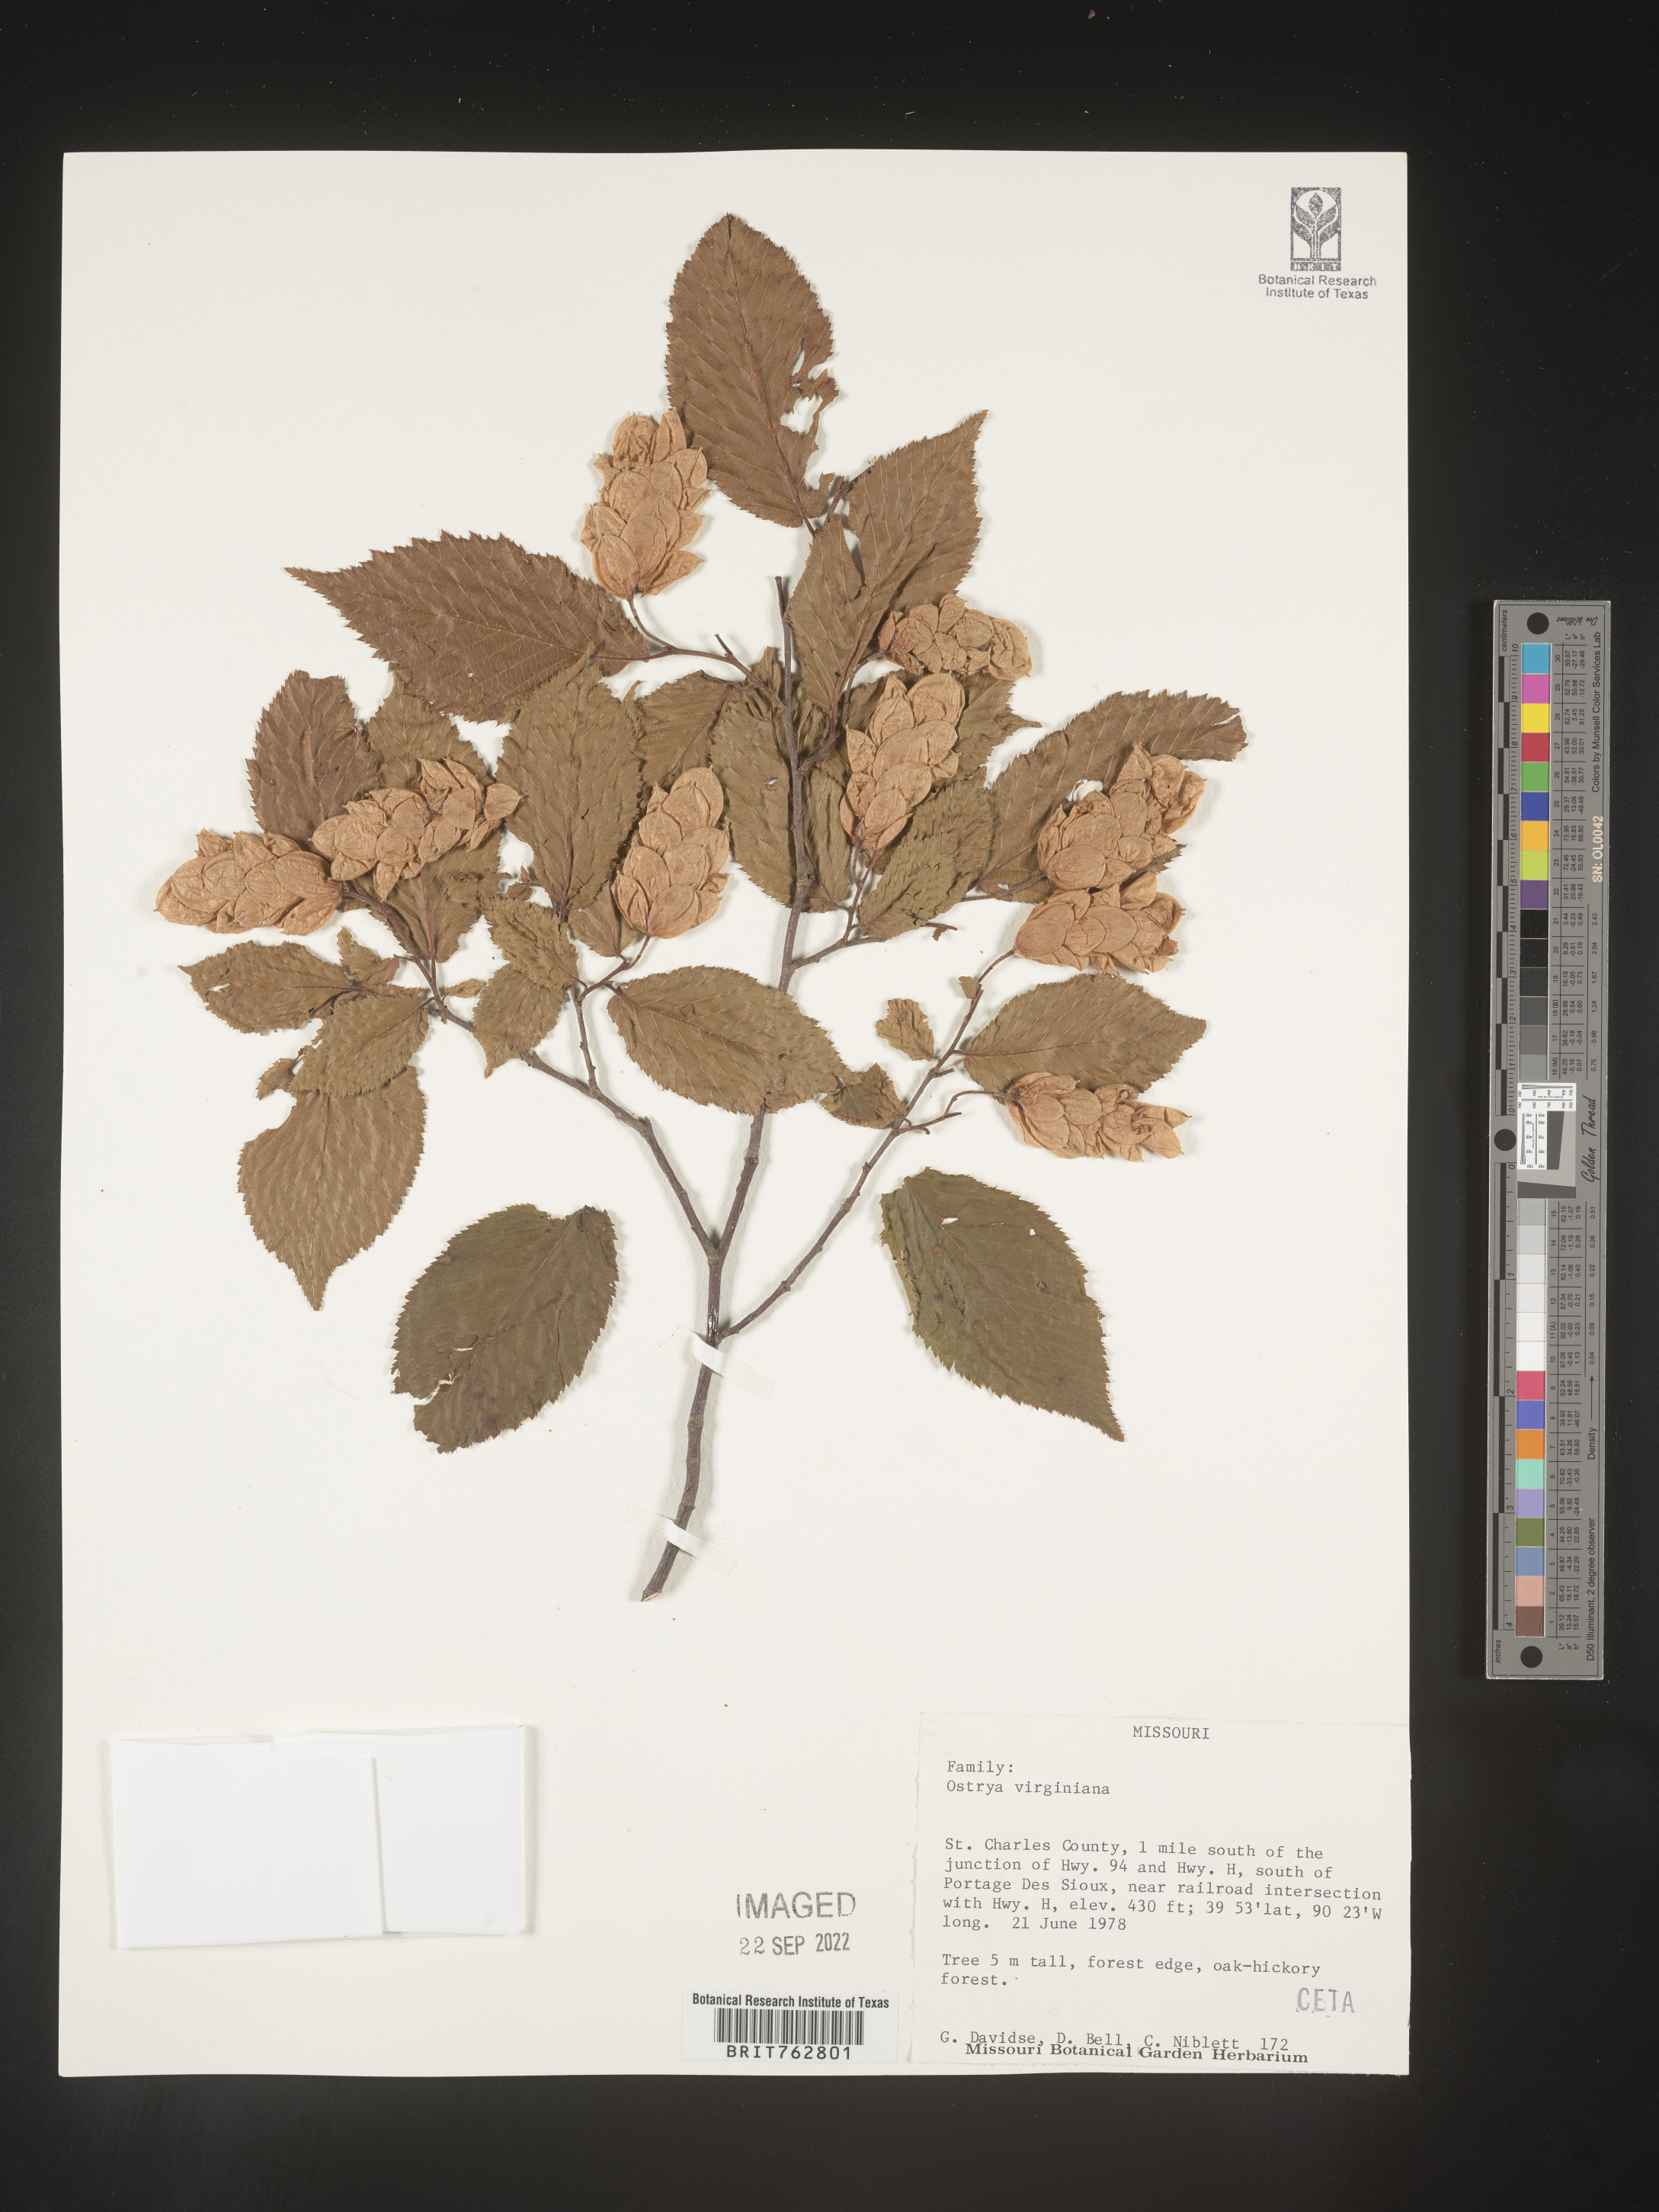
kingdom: Plantae
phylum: Tracheophyta
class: Magnoliopsida
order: Fagales
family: Betulaceae
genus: Ostrya
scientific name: Ostrya virginiana
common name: Ironwood
